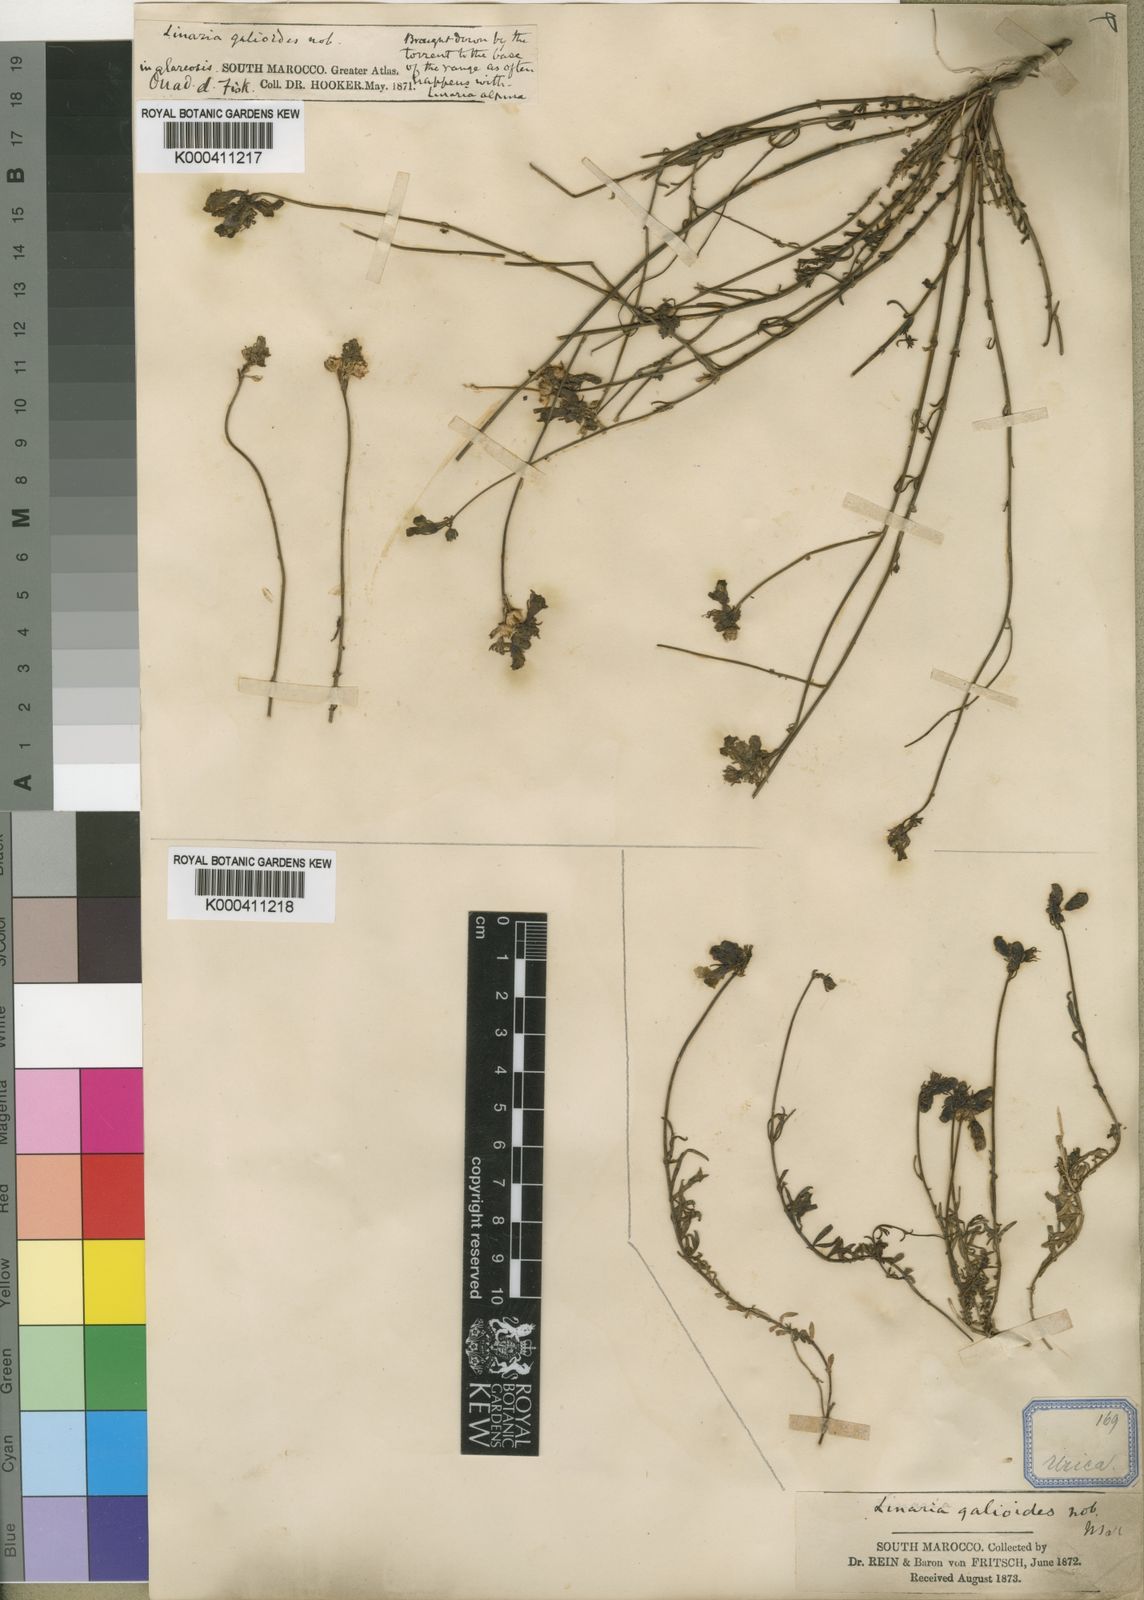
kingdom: Plantae
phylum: Tracheophyta
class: Magnoliopsida
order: Lamiales
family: Plantaginaceae
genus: Linaria
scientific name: Linaria
